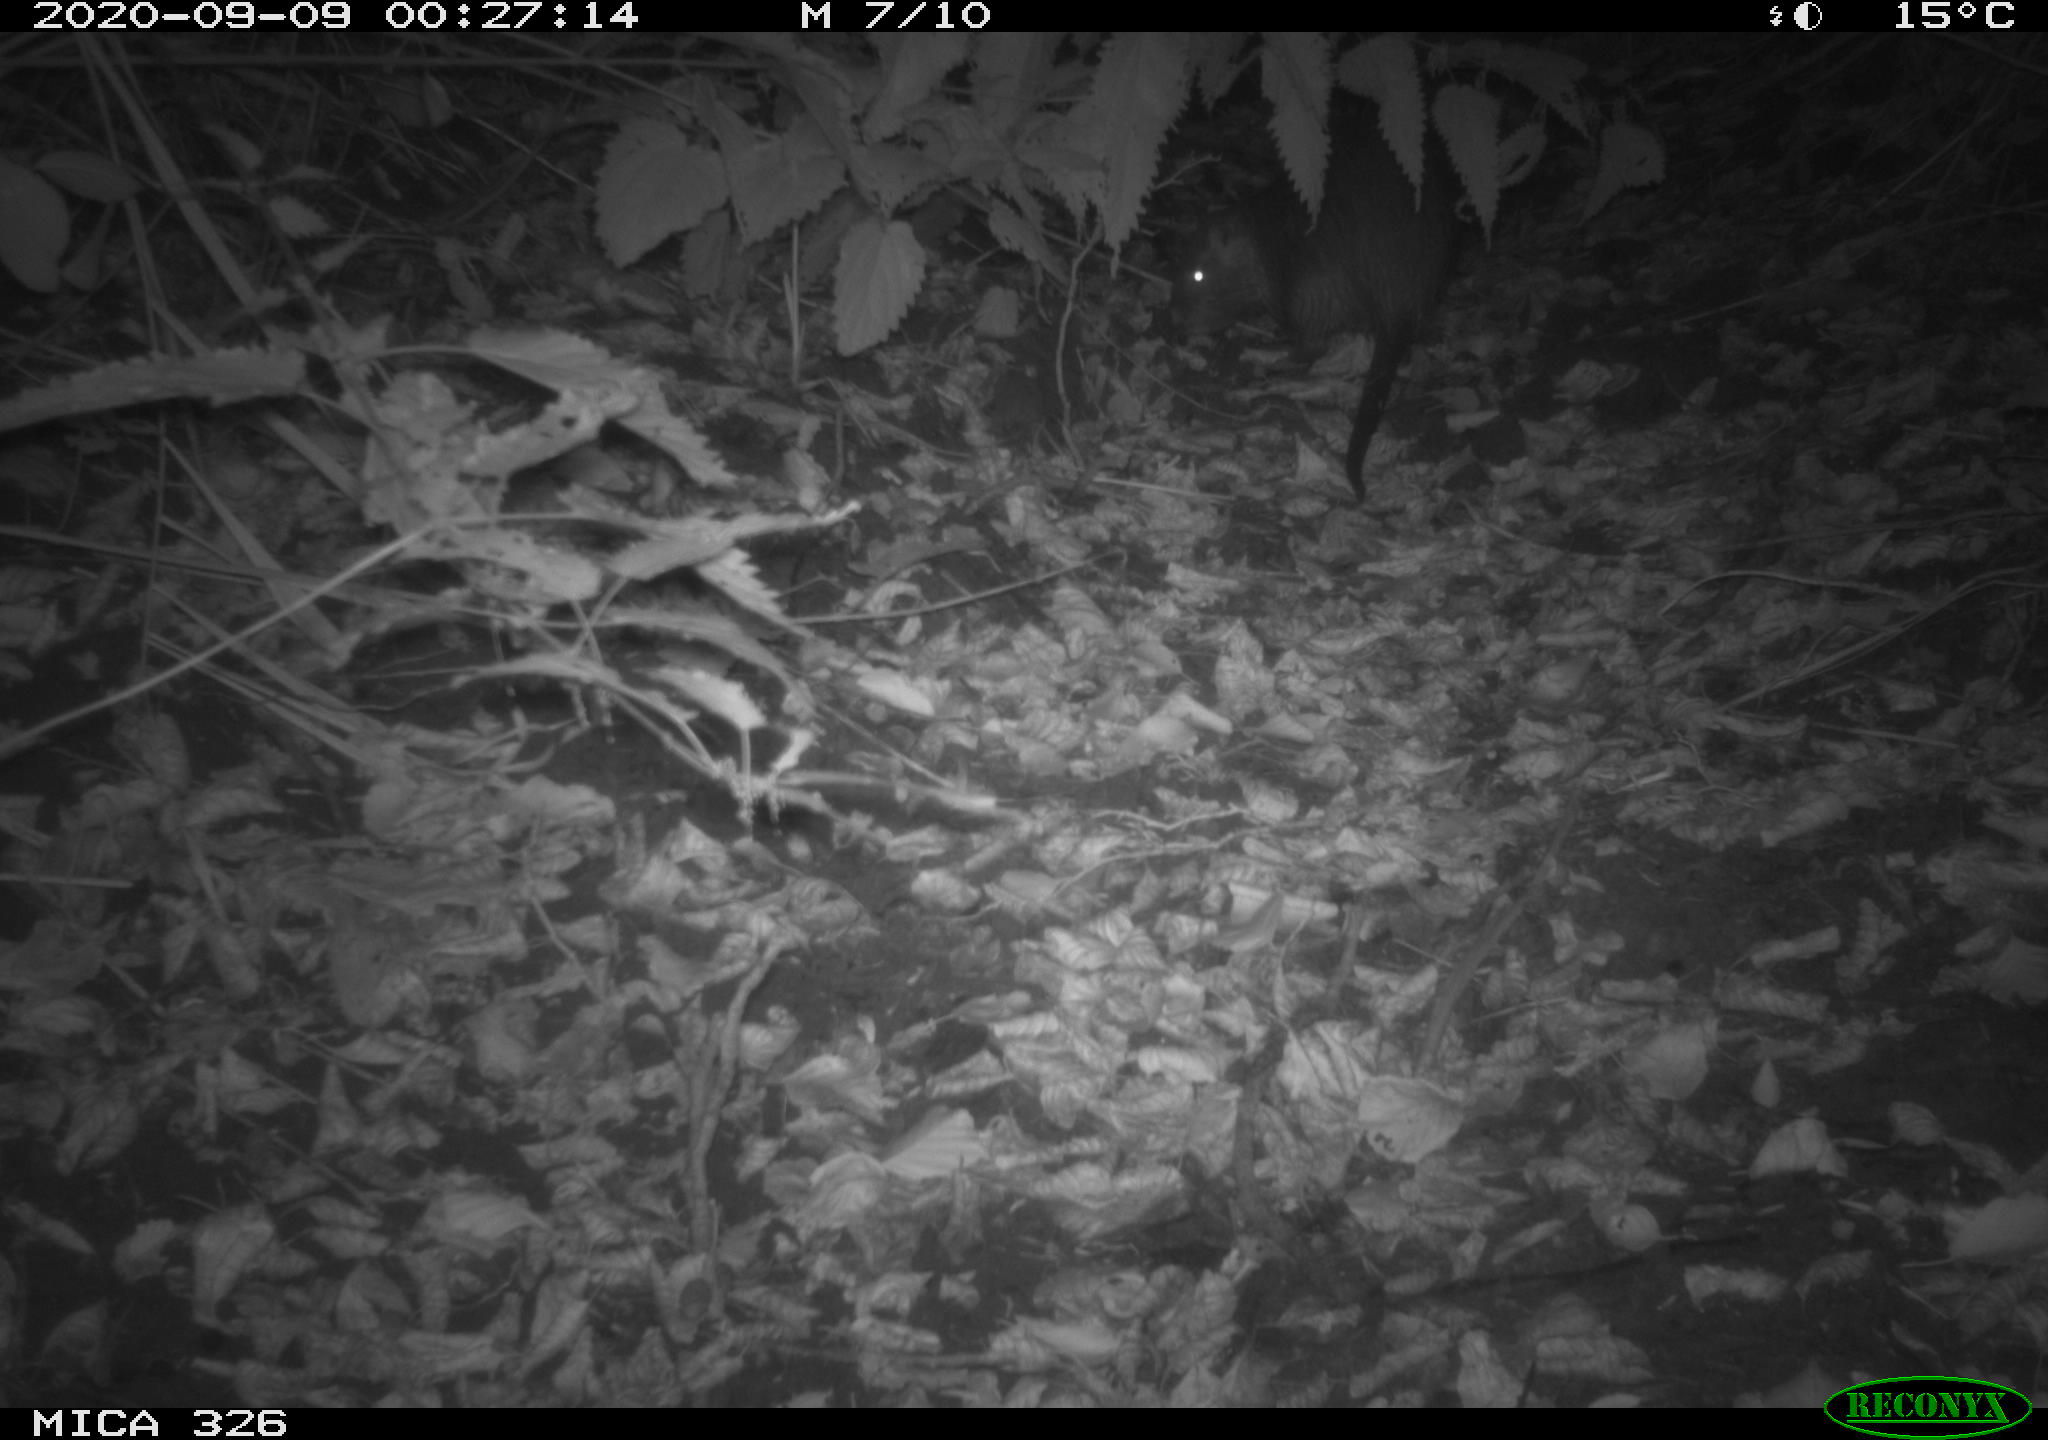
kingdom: Animalia
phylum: Chordata
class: Mammalia
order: Rodentia
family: Myocastoridae
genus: Myocastor
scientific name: Myocastor coypus
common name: Coypu
